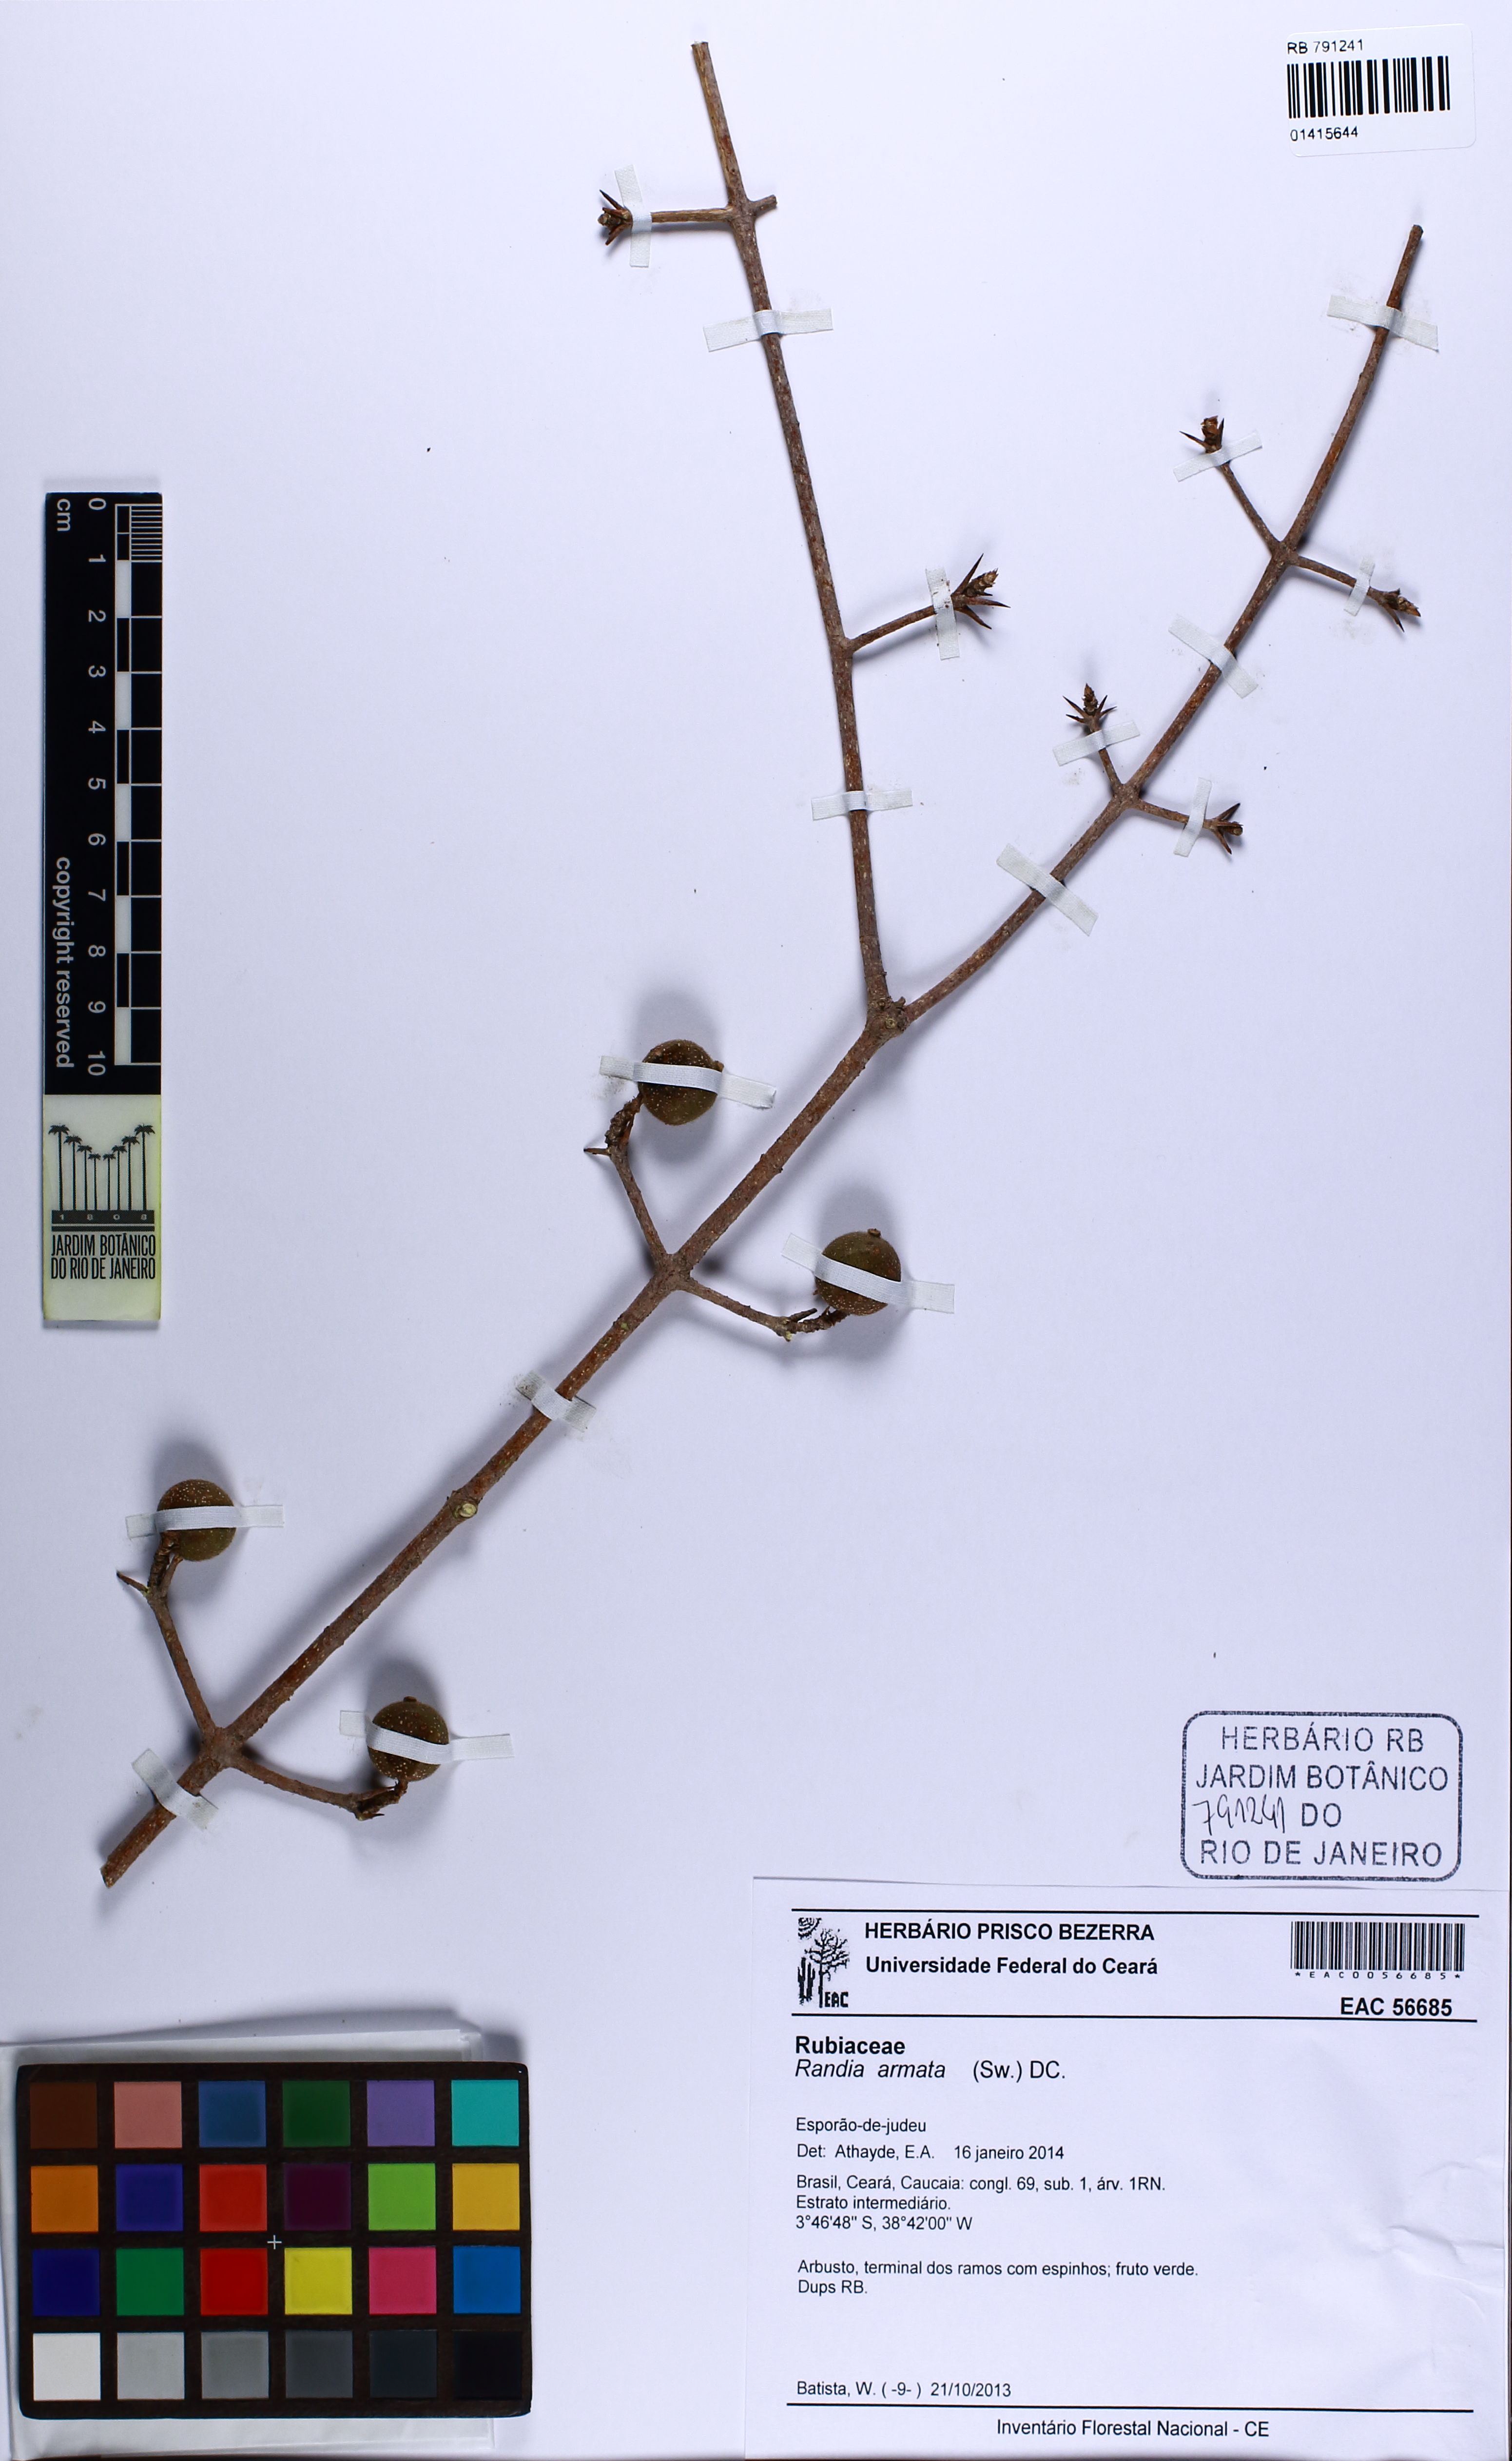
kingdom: Plantae
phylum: Tracheophyta
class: Magnoliopsida
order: Gentianales
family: Rubiaceae
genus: Randia
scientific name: Randia armata
